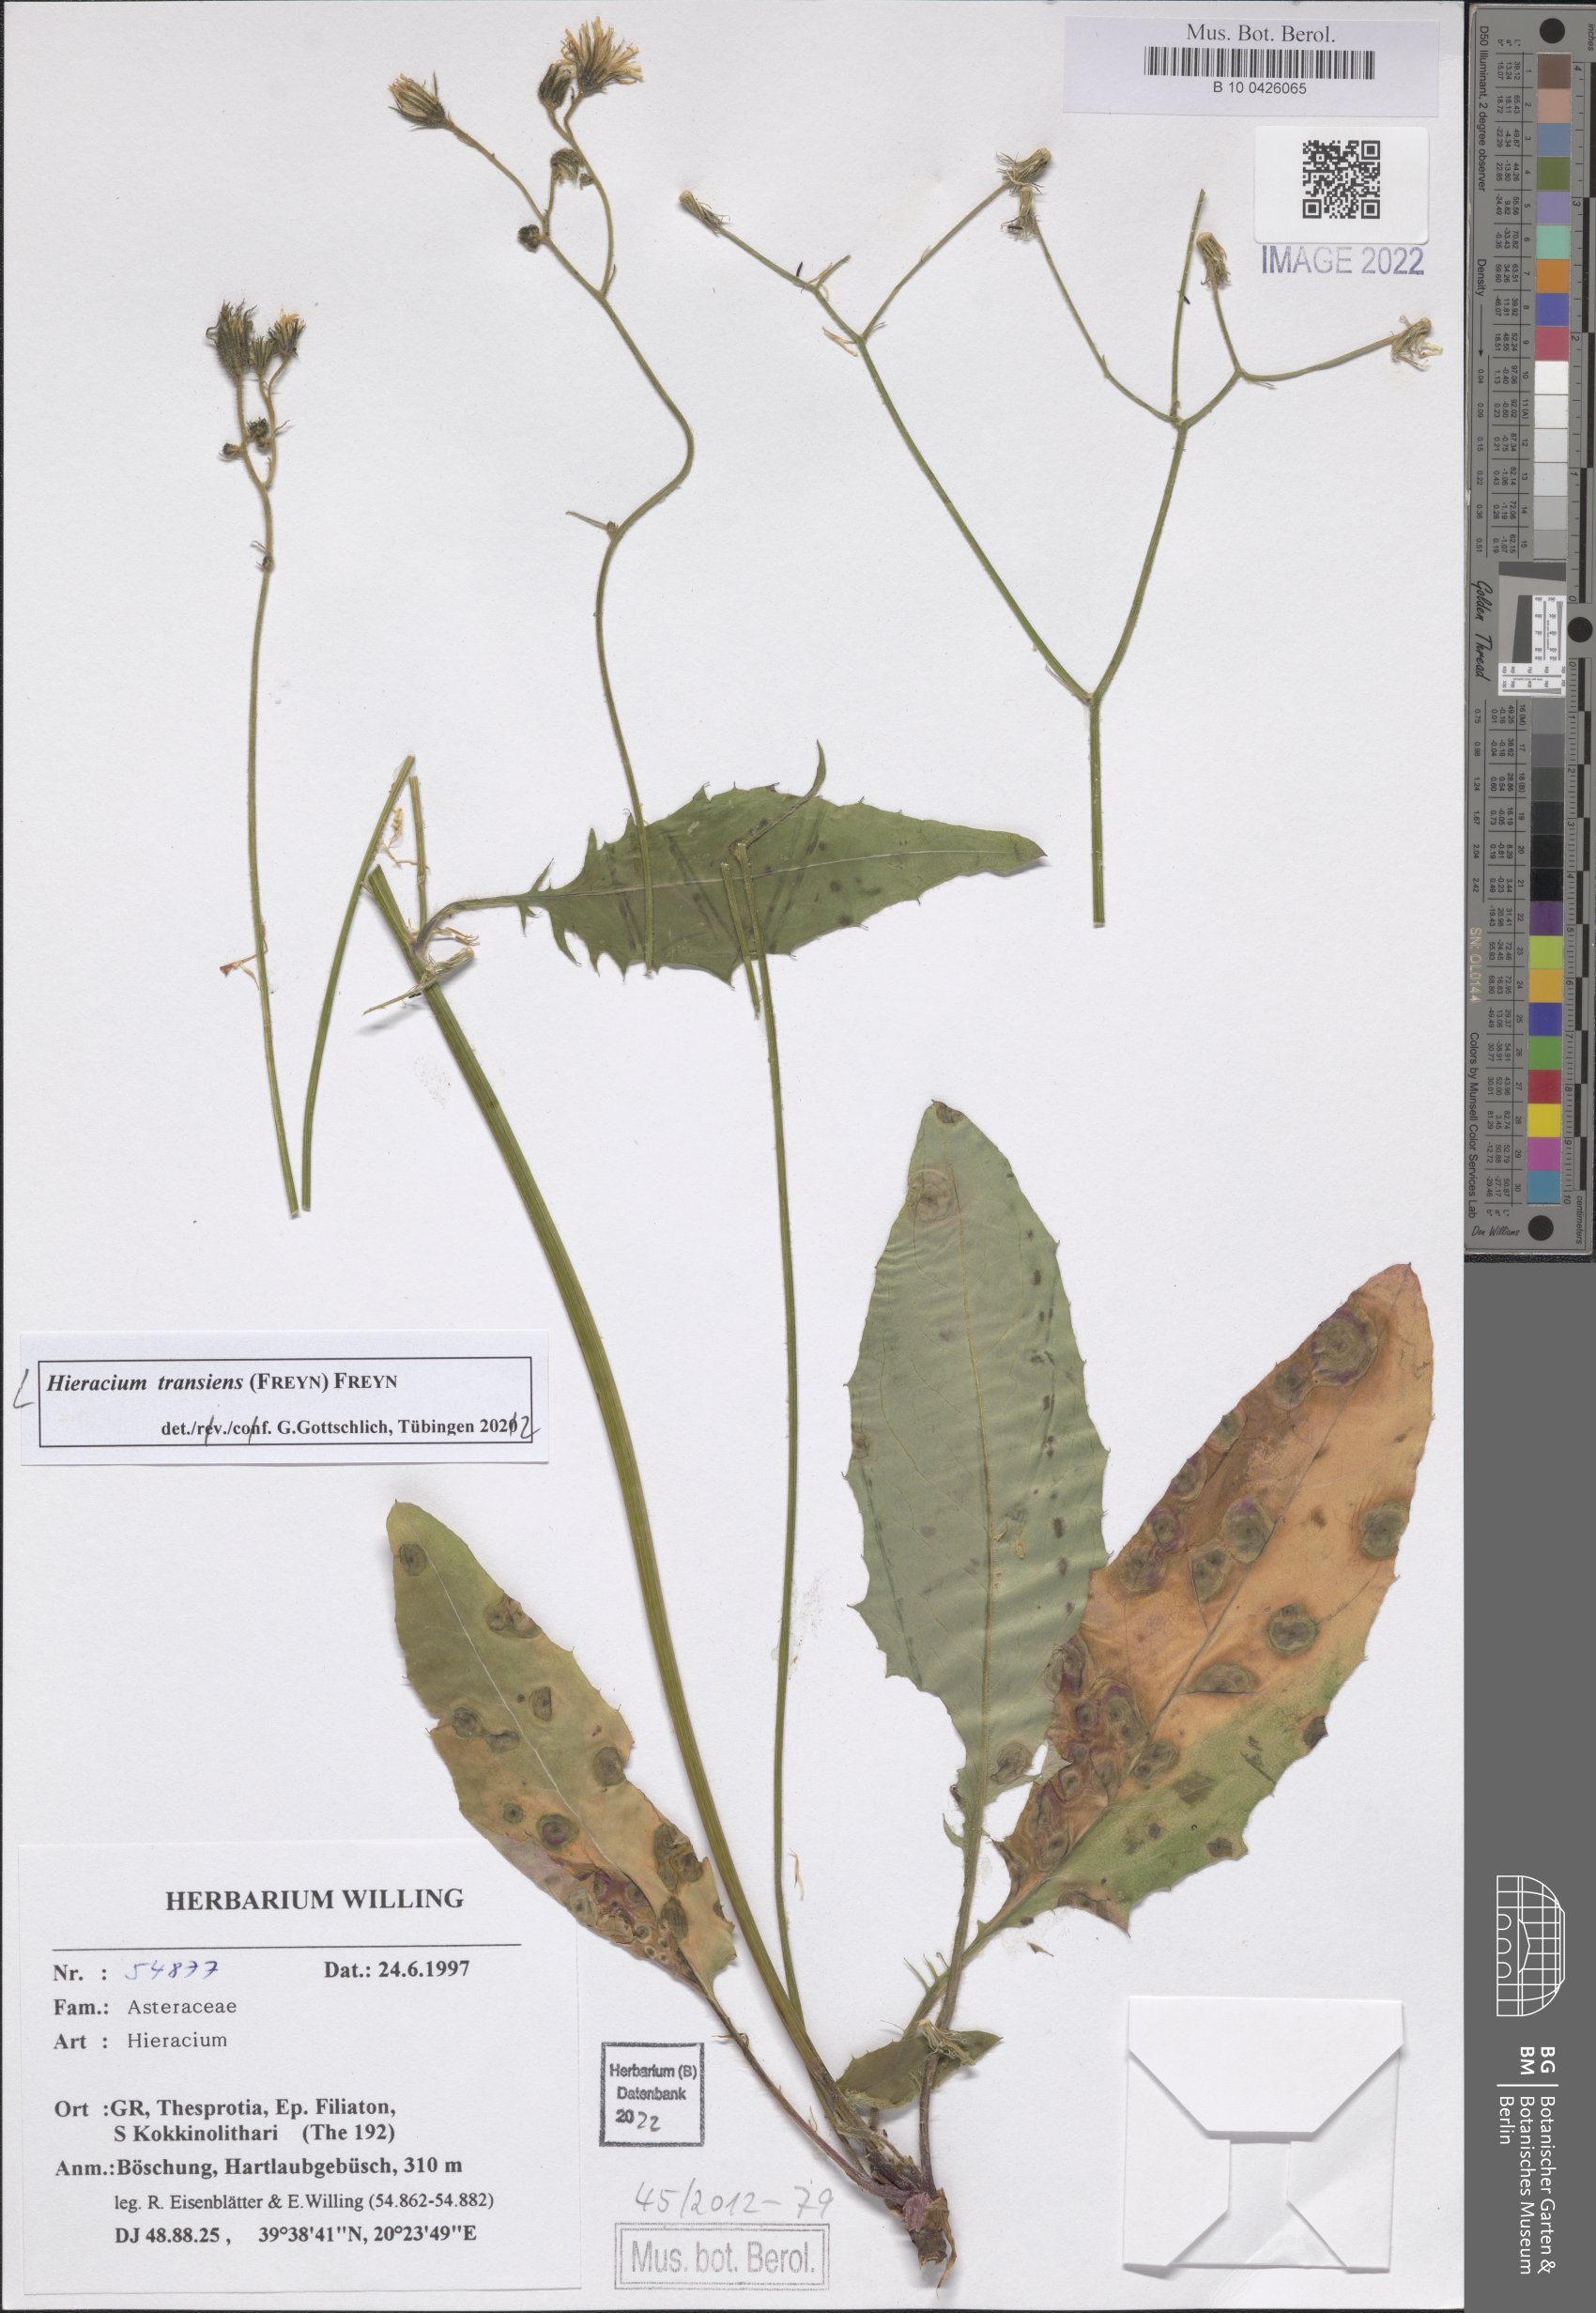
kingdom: Plantae
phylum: Tracheophyta
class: Magnoliopsida
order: Asterales
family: Asteraceae
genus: Hieracium
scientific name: Hieracium transiens
